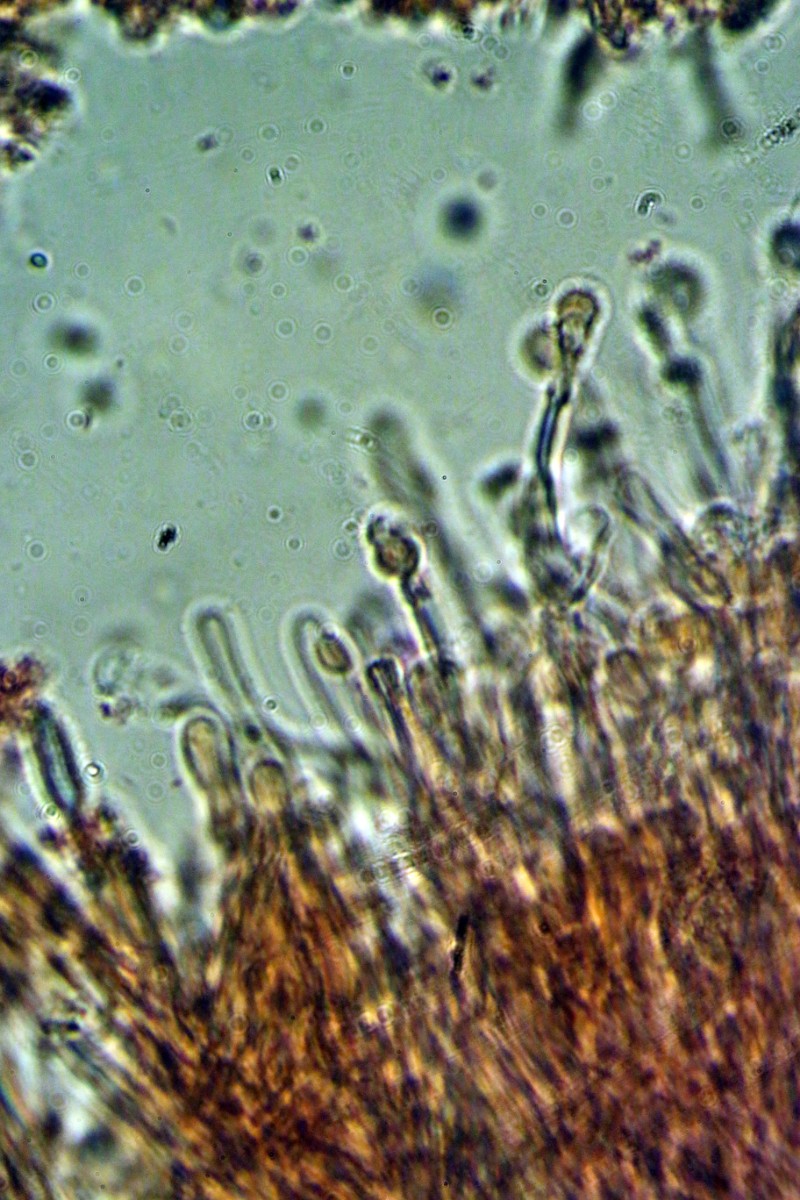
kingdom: Fungi
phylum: Basidiomycota
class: Agaricomycetes
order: Hymenochaetales
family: Hyphodontiaceae
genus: Hyphodontia
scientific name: Hyphodontia arguta
